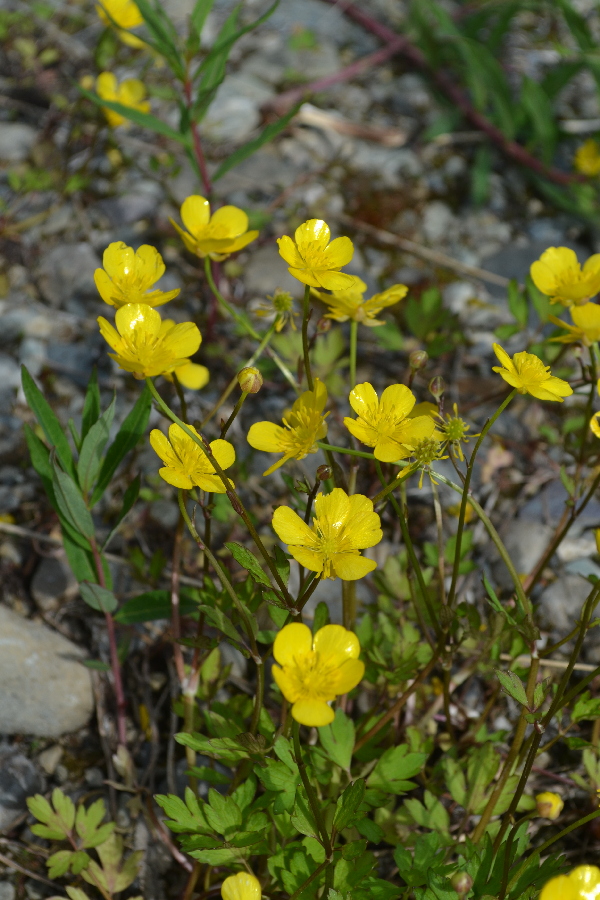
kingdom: Plantae
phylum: Tracheophyta
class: Magnoliopsida
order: Ranunculales
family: Ranunculaceae
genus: Ranunculus
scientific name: Ranunculus repens
